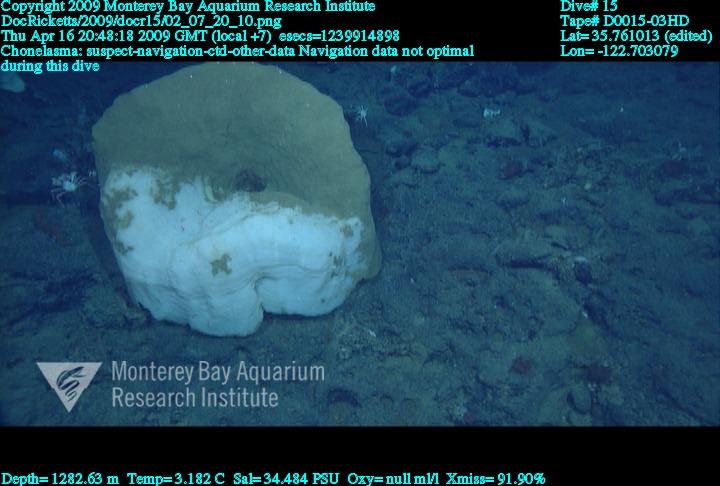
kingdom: Animalia
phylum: Porifera
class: Hexactinellida
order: Sceptrulophora
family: Euretidae
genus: Chonelasma
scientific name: Chonelasma
